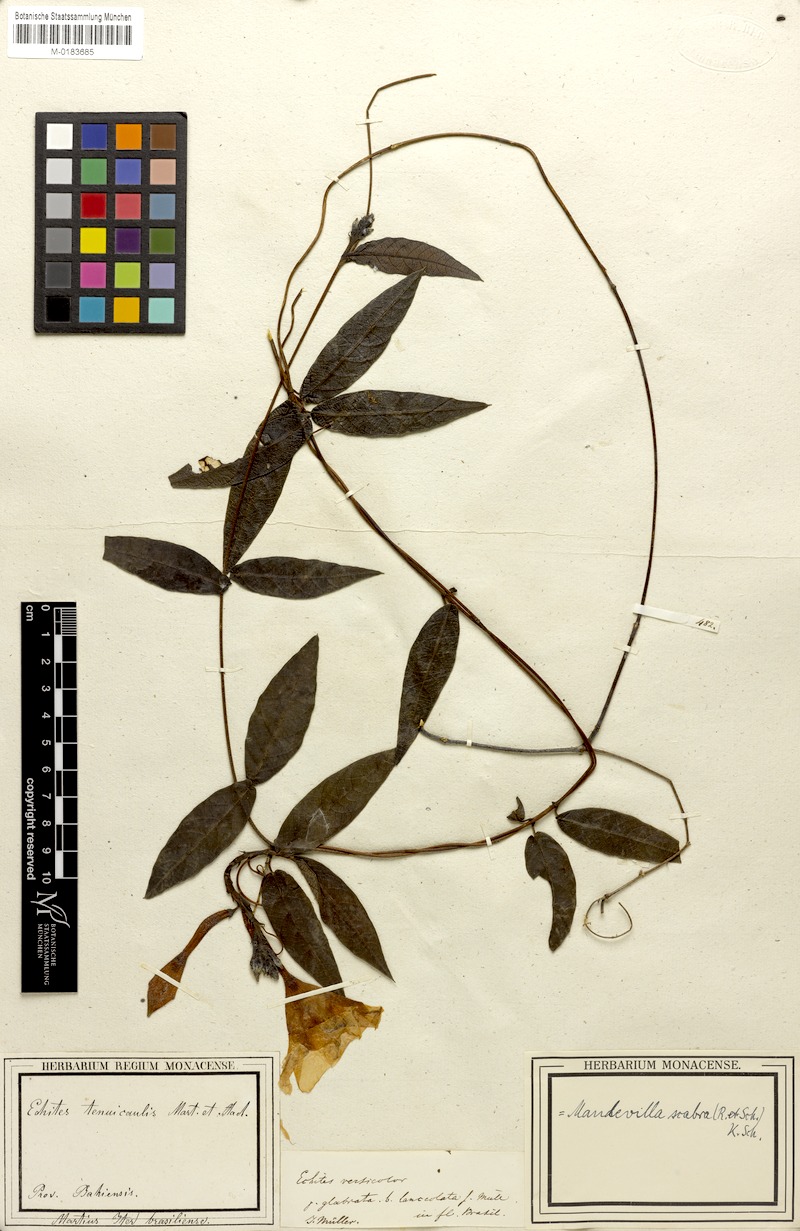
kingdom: Plantae
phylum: Tracheophyta
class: Magnoliopsida
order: Gentianales
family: Apocynaceae
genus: Mandevilla
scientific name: Mandevilla scabra
